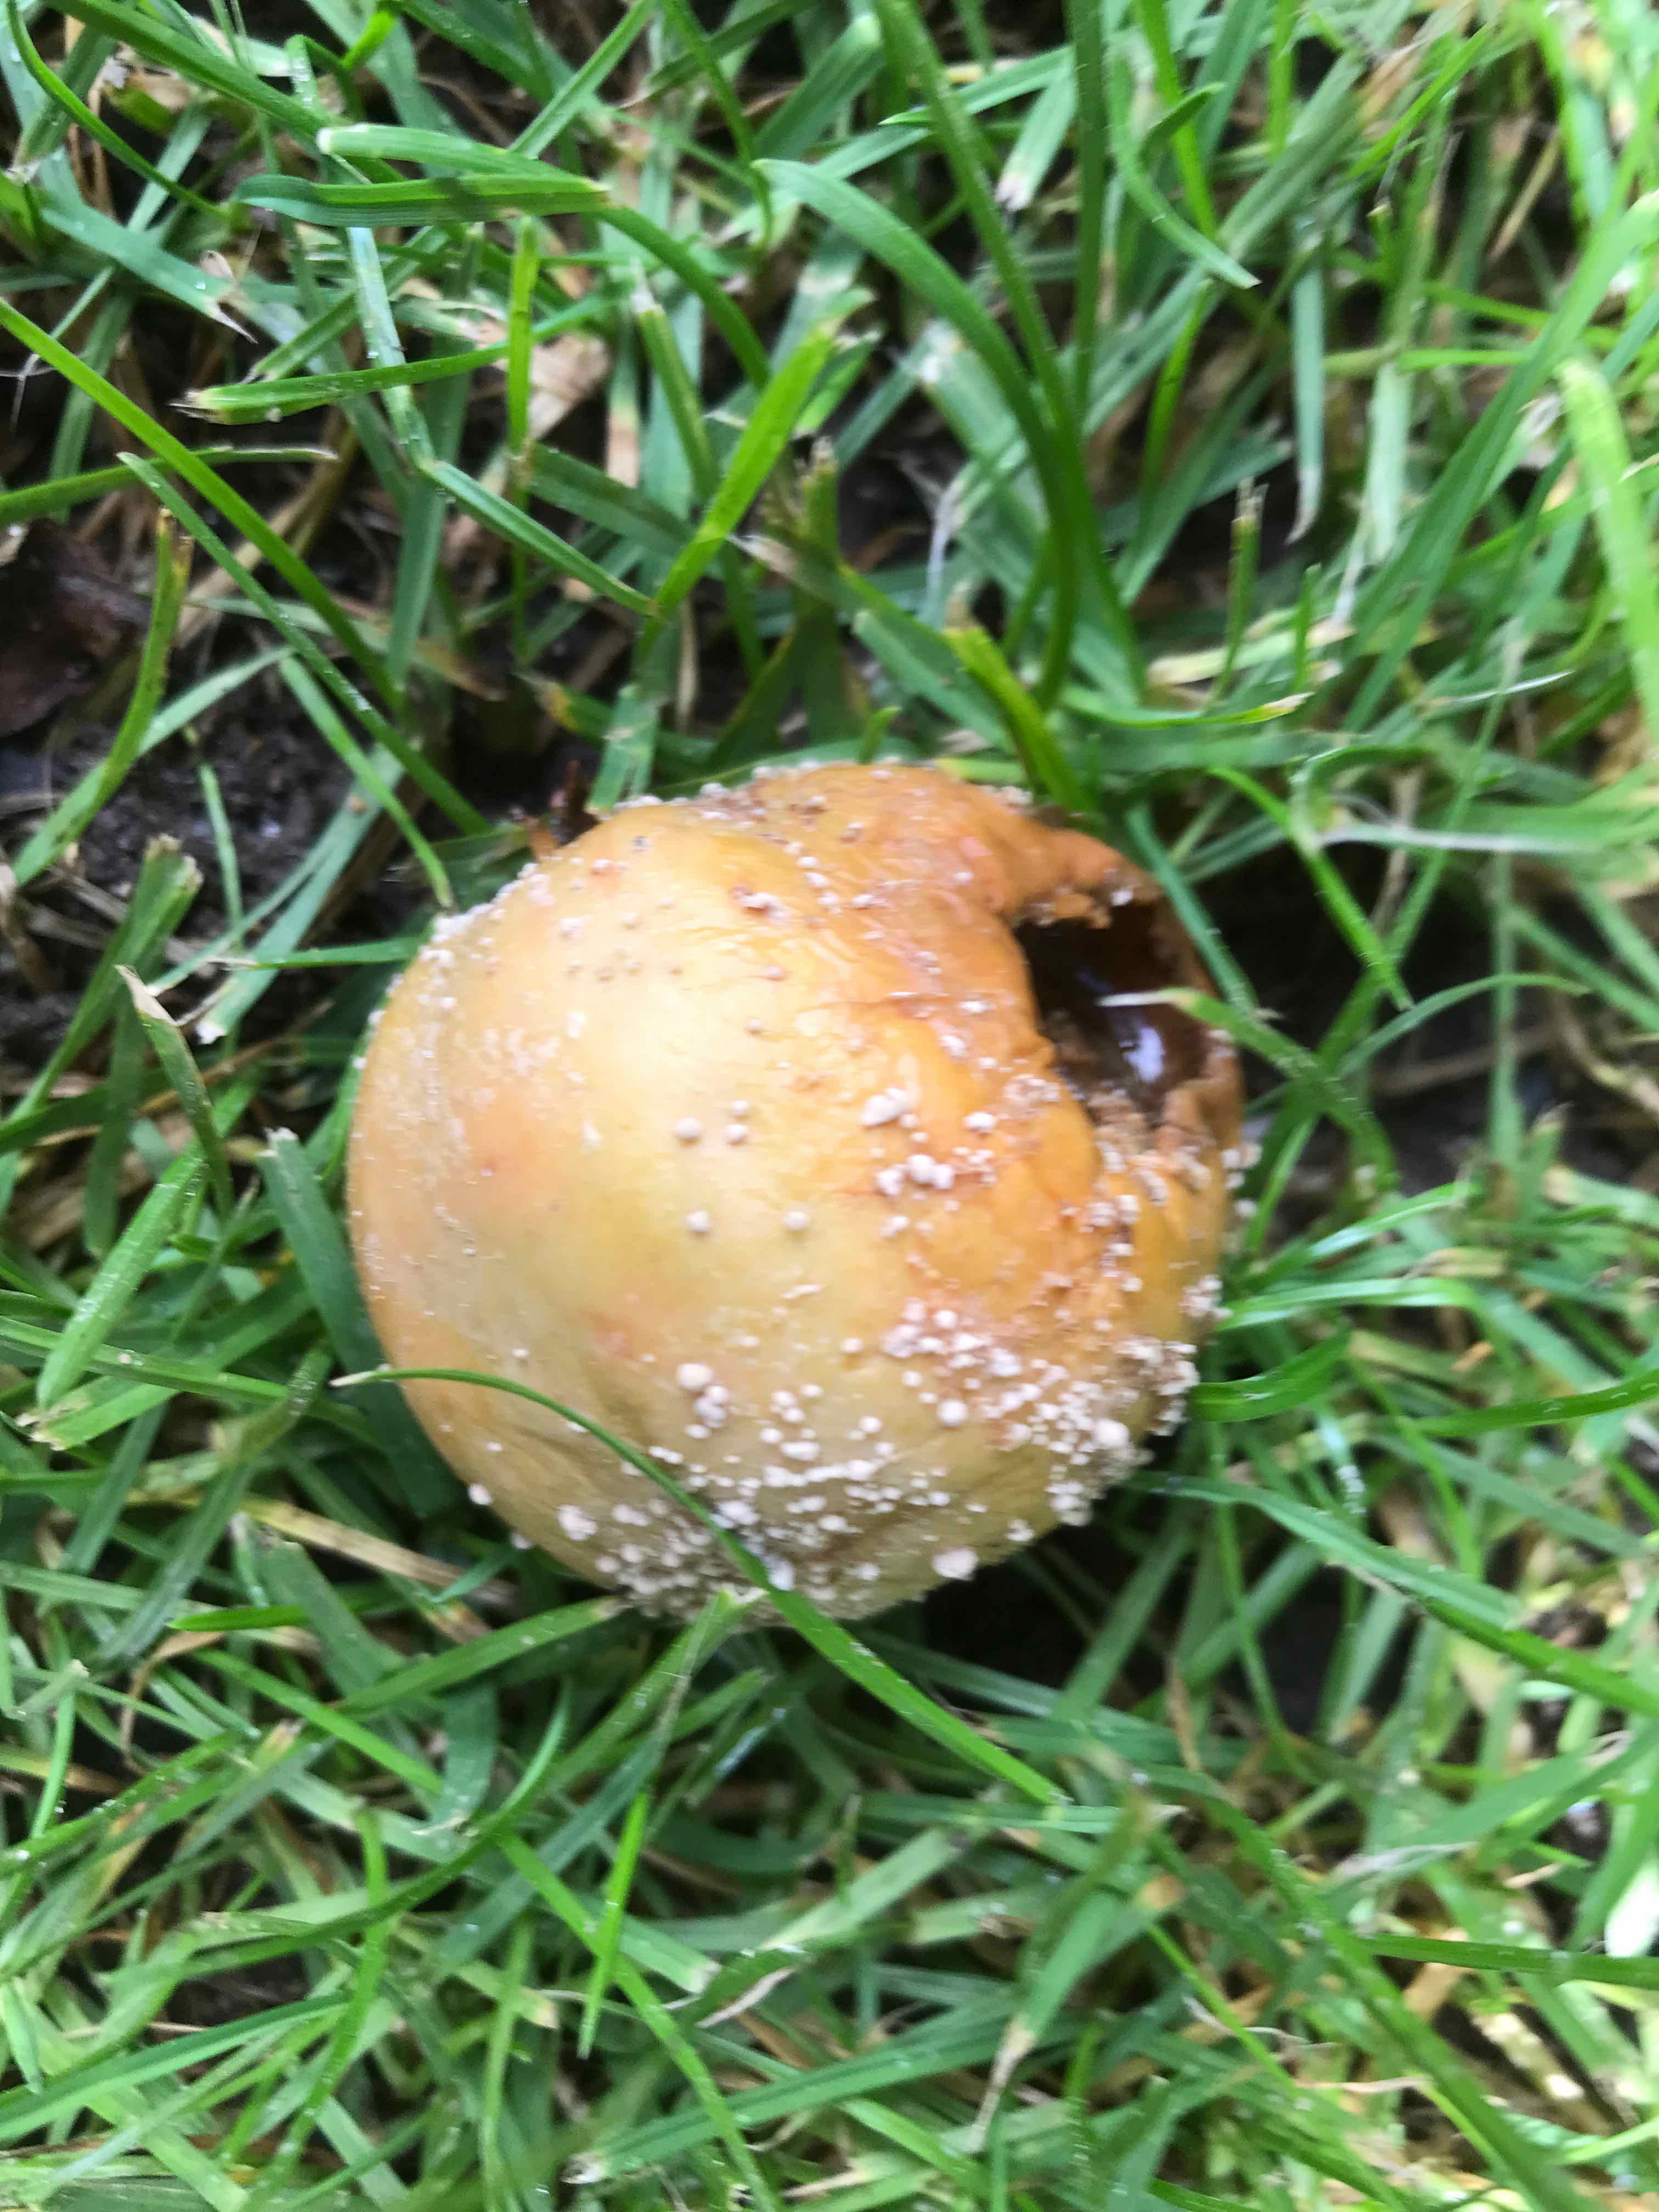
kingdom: Fungi
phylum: Ascomycota
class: Leotiomycetes
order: Helotiales
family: Sclerotiniaceae
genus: Monilinia
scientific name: Monilinia fructigena
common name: æble-knoldskive
